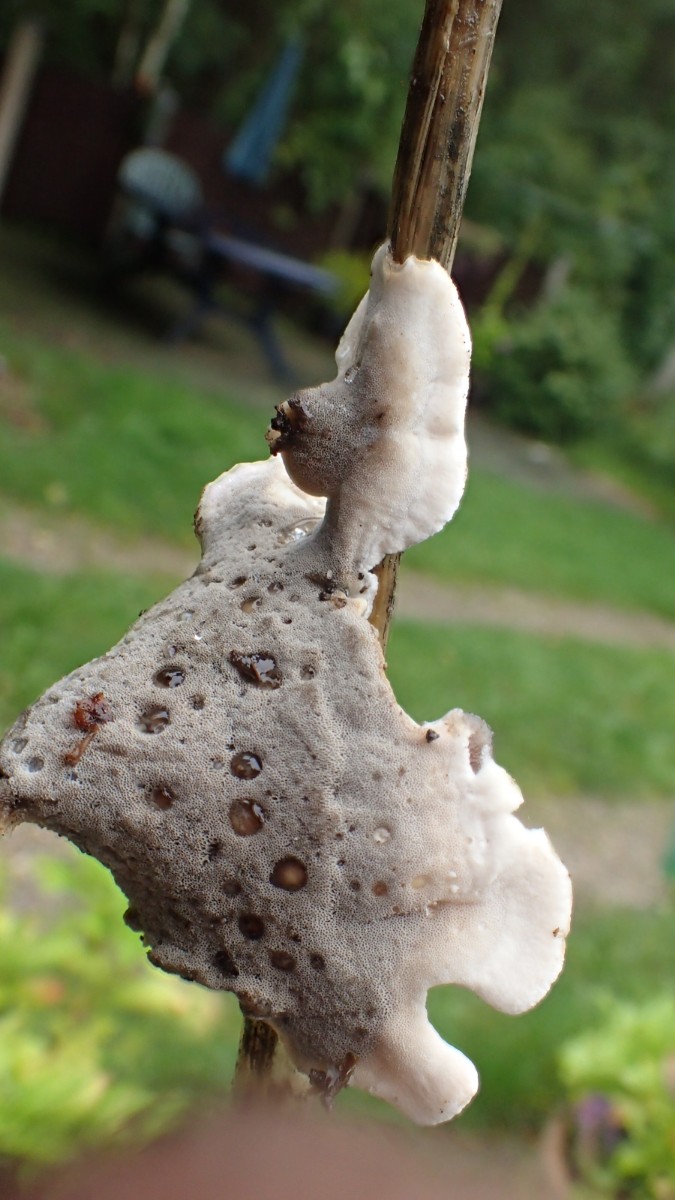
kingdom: Fungi
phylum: Basidiomycota
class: Agaricomycetes
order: Polyporales
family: Phanerochaetaceae
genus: Bjerkandera
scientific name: Bjerkandera adusta
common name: sveden sodporesvamp
